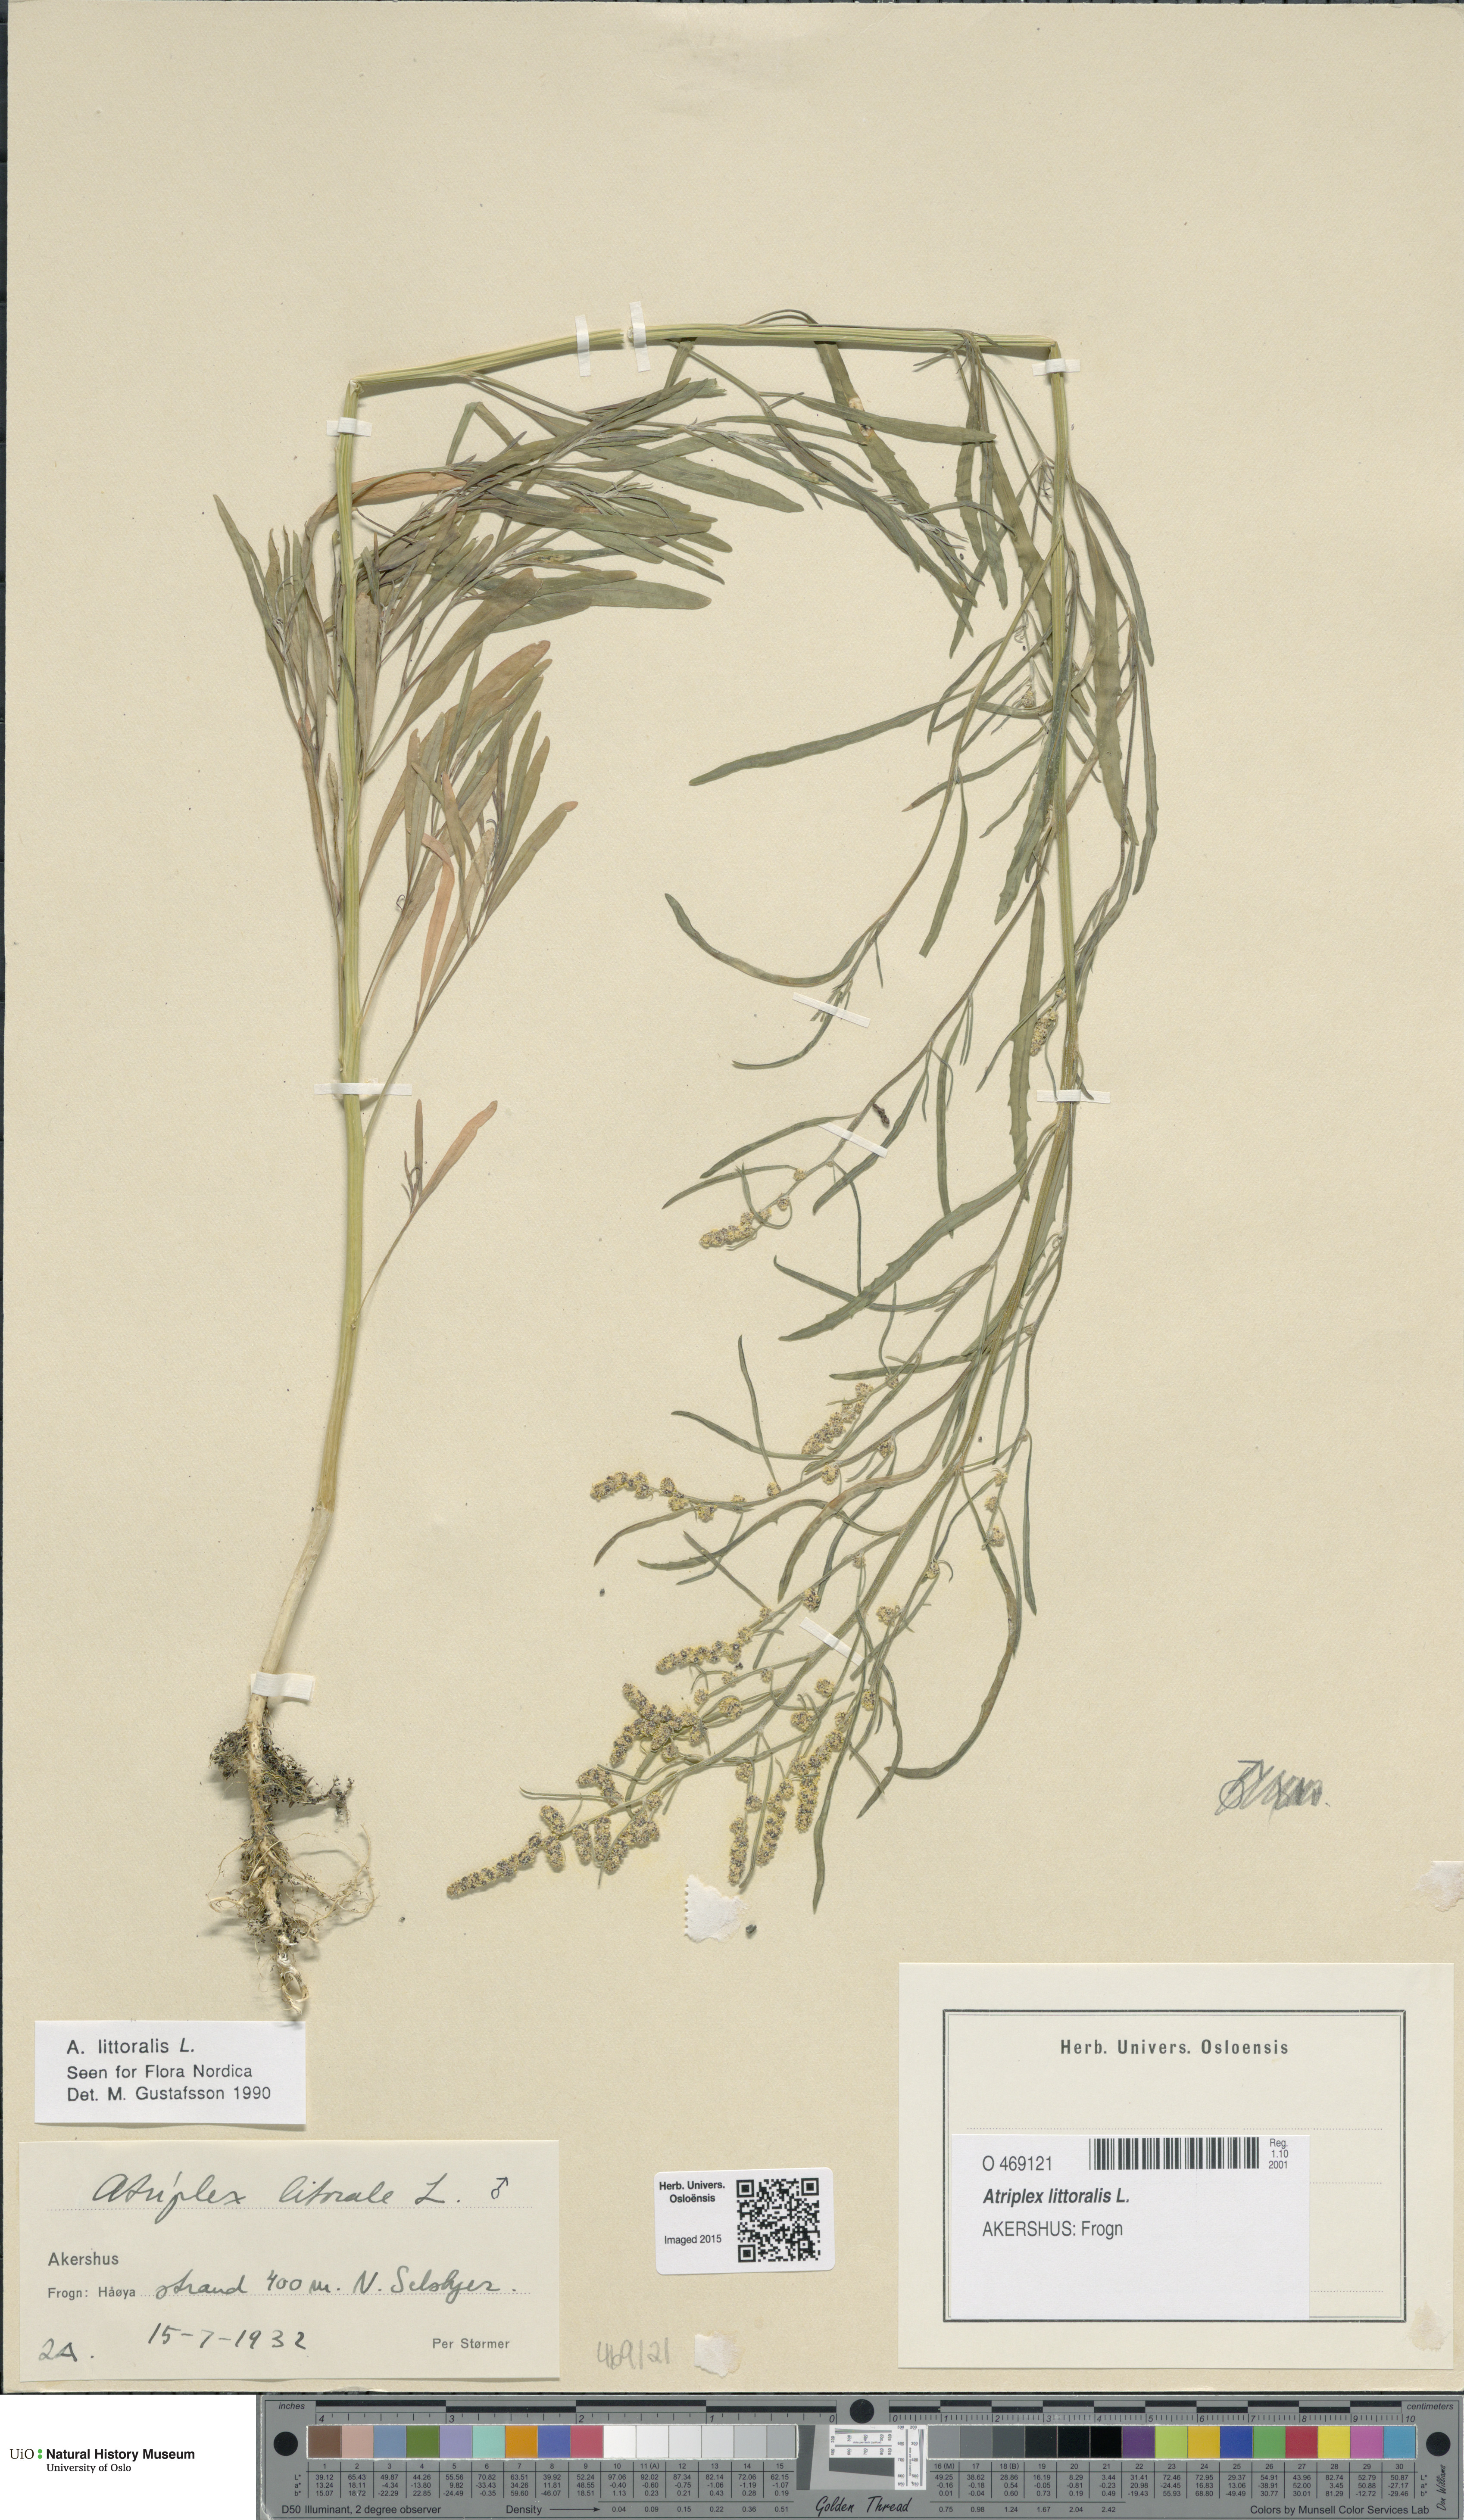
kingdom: Plantae
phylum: Tracheophyta
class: Magnoliopsida
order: Caryophyllales
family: Amaranthaceae
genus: Atriplex
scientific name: Atriplex littoralis
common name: Grass-leaved orache
